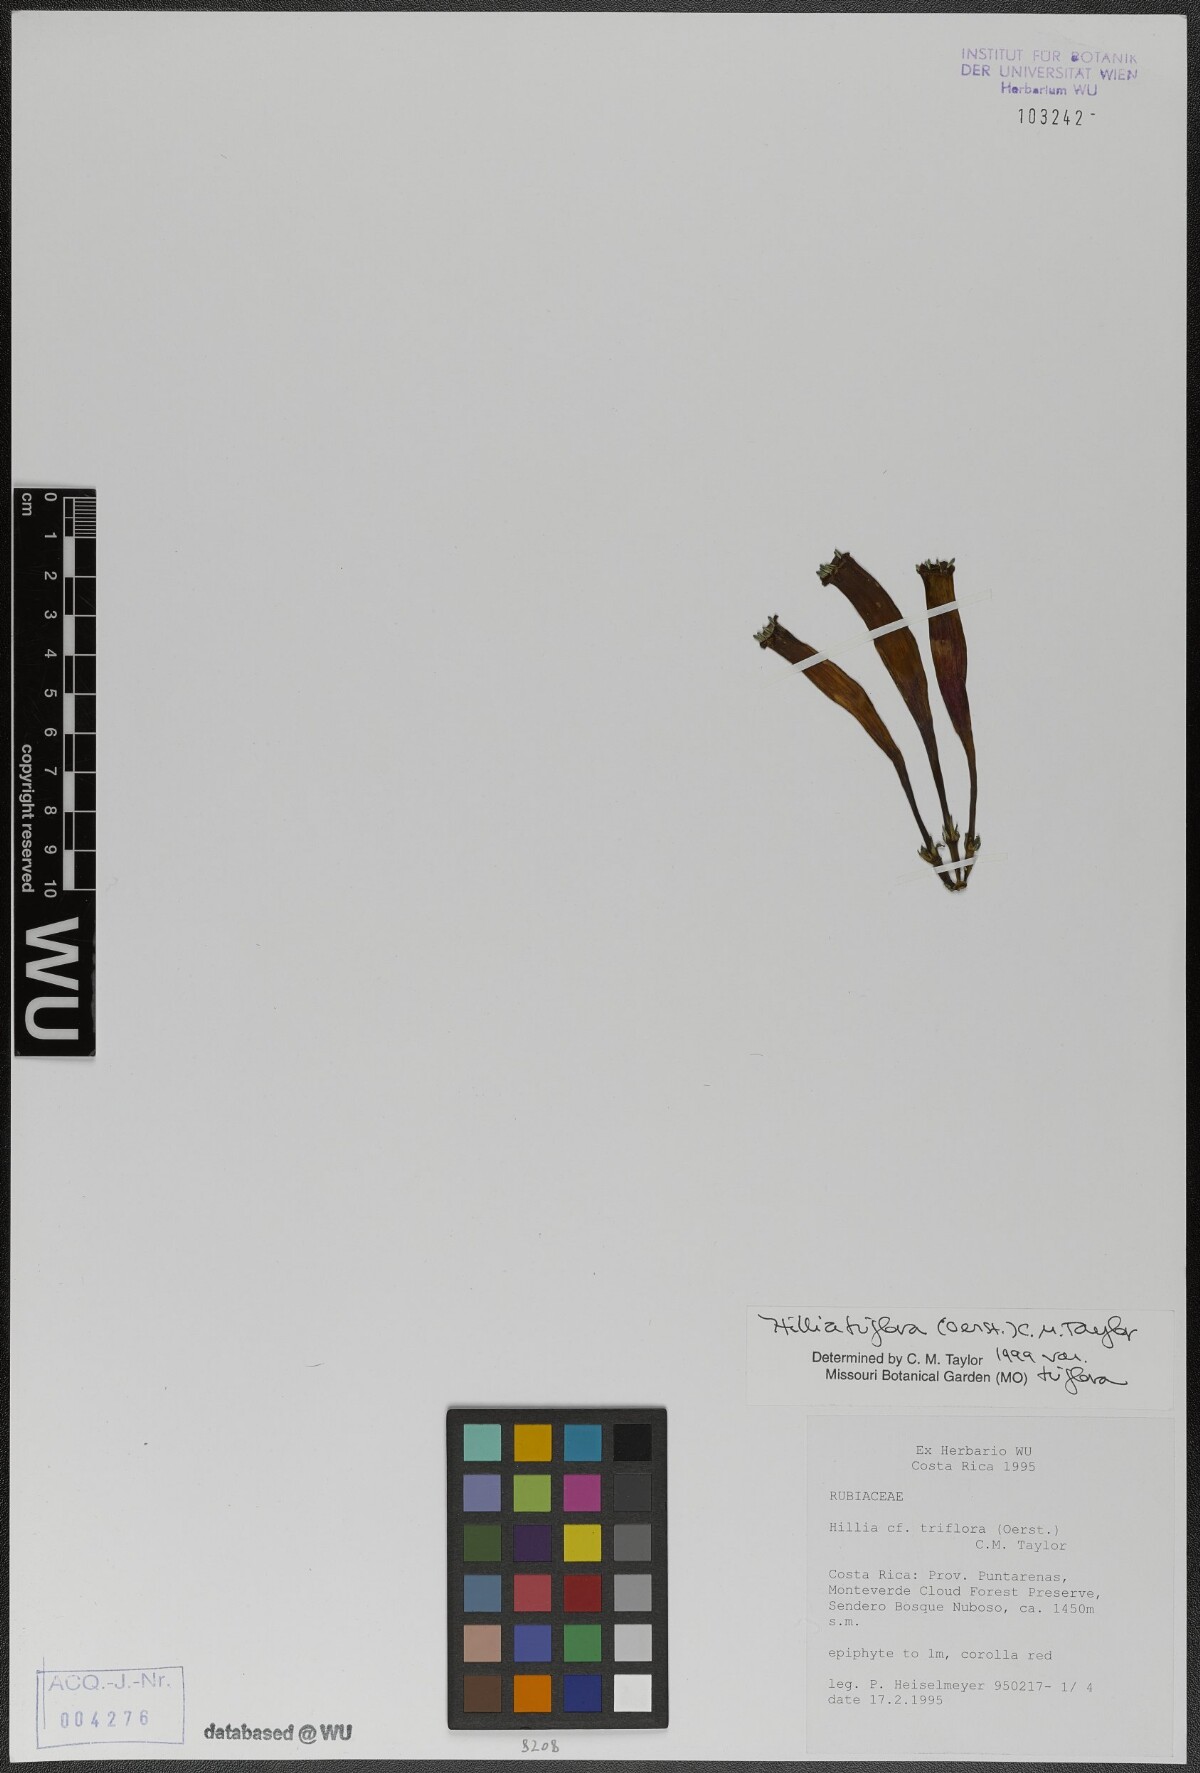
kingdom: Plantae
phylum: Tracheophyta
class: Magnoliopsida
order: Gentianales
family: Rubiaceae
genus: Hillia
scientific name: Hillia triflora
